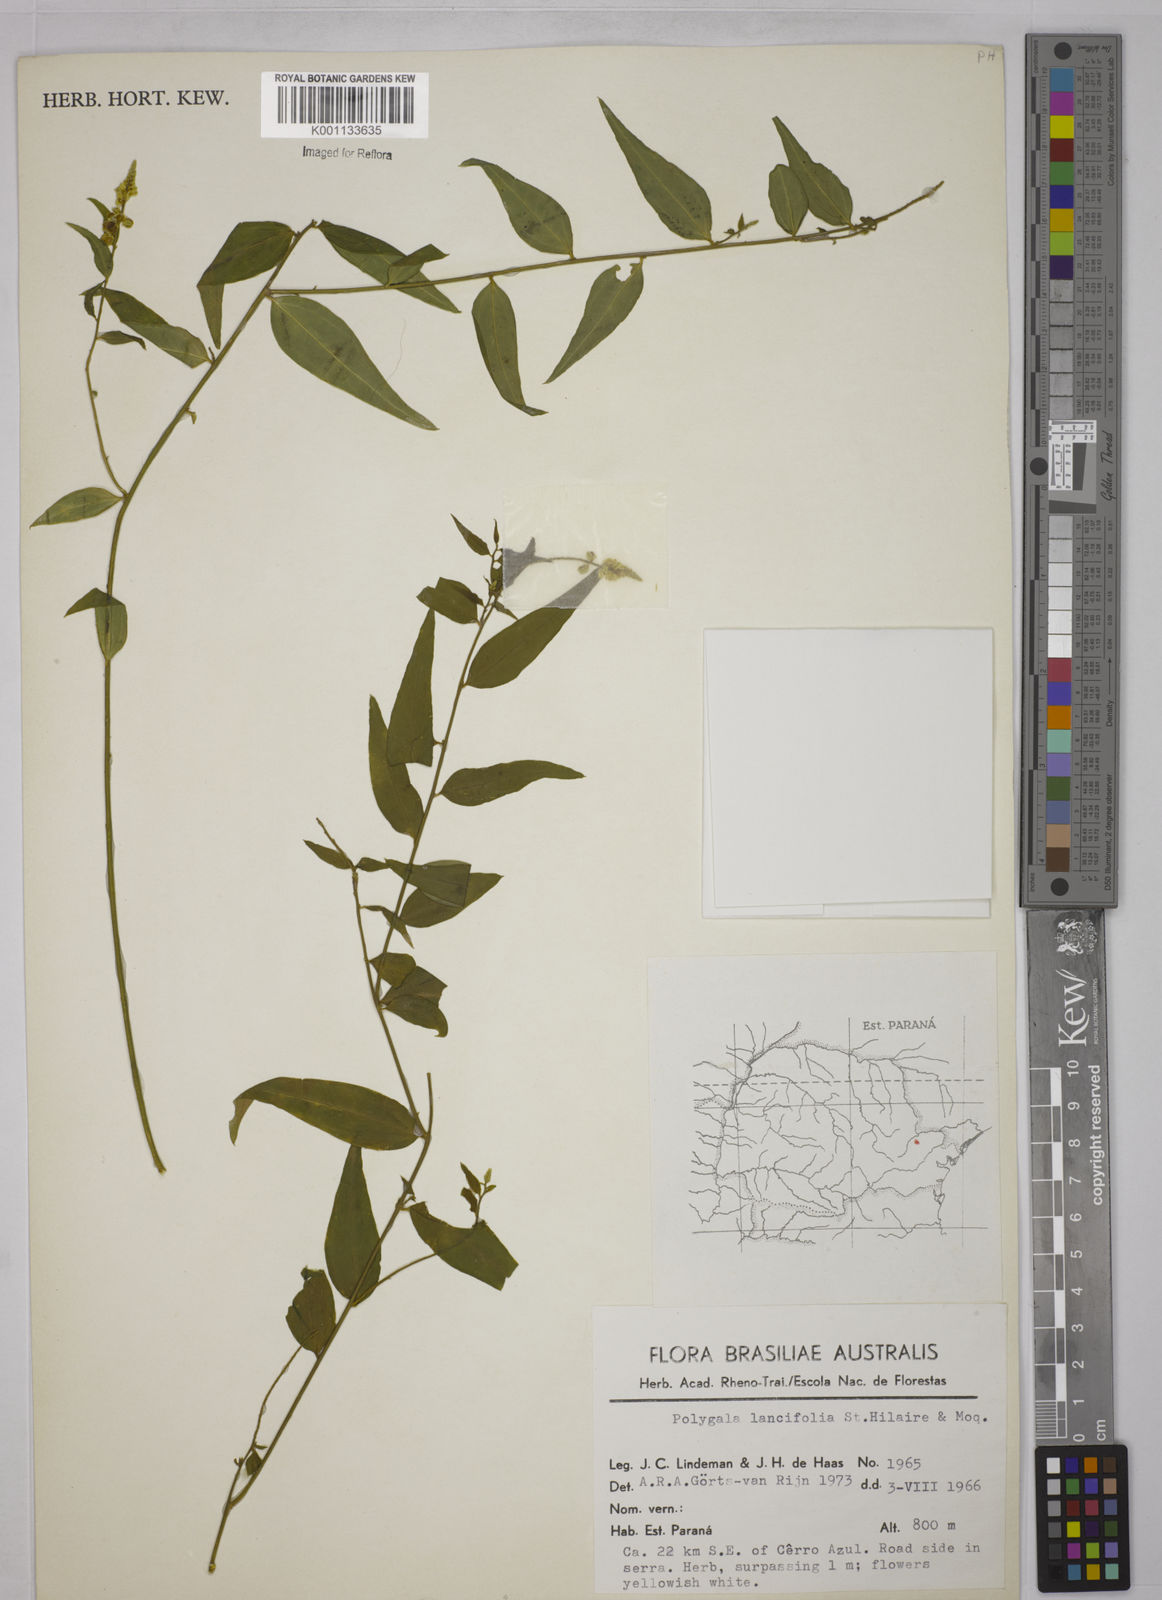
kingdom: Plantae
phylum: Tracheophyta
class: Magnoliopsida
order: Fabales
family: Polygalaceae
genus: Polygala
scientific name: Polygala lancifolia
